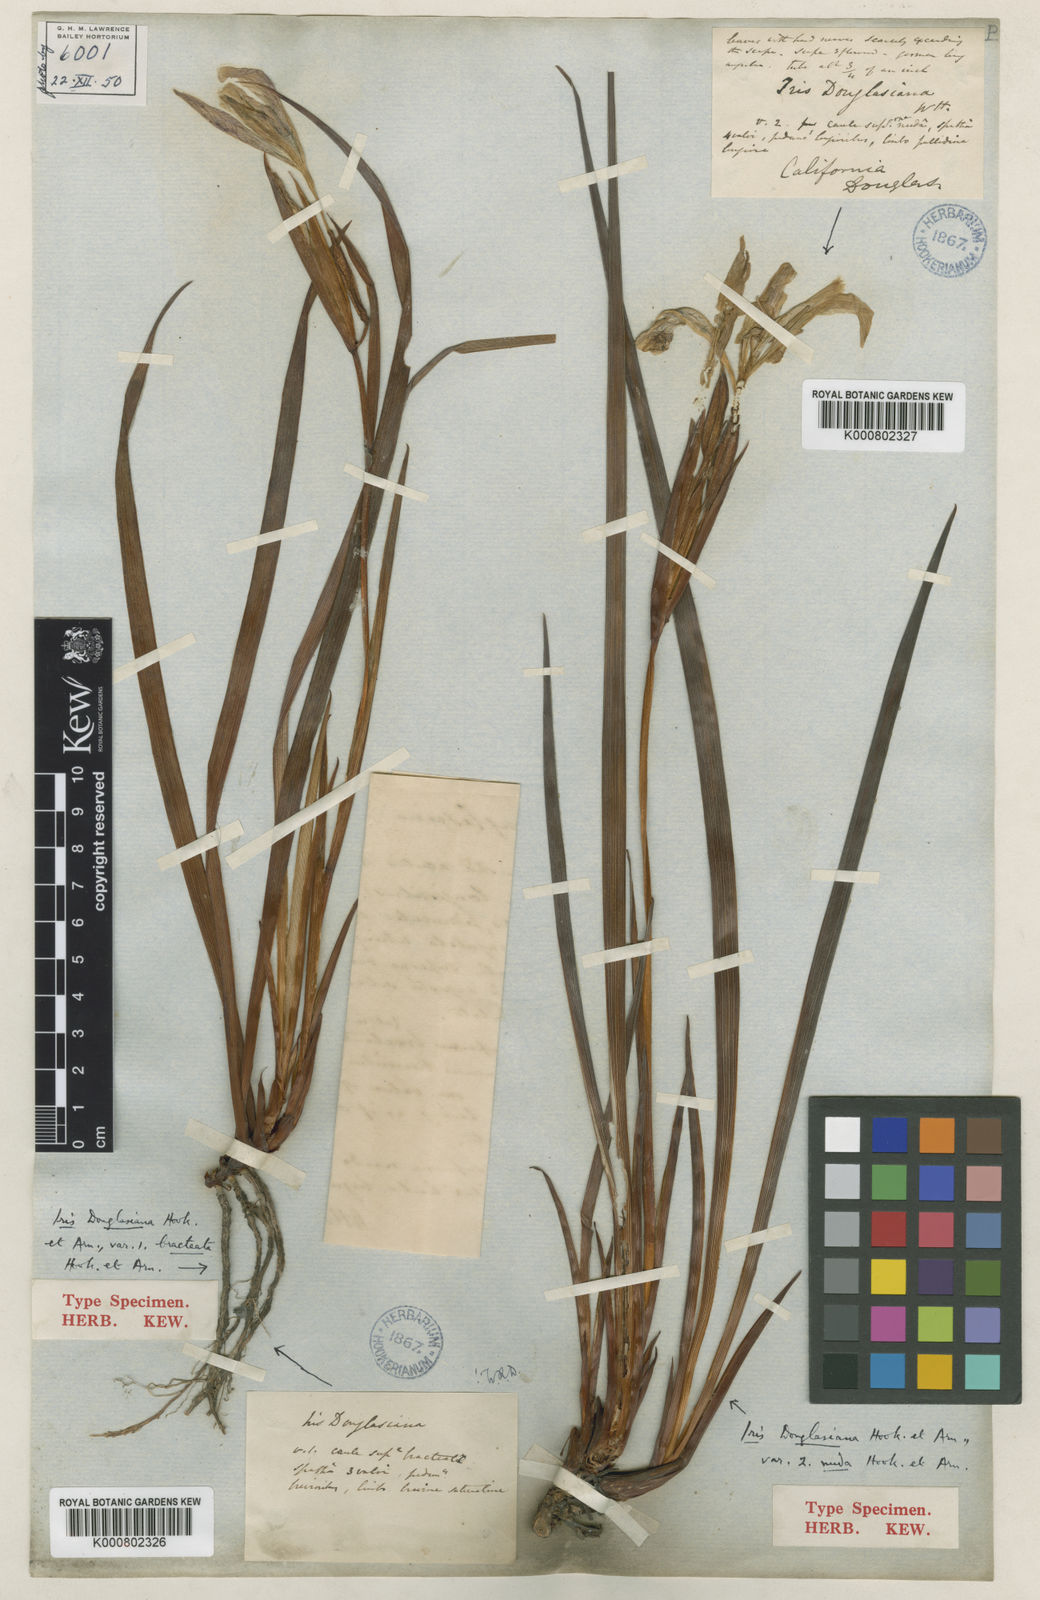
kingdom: Plantae
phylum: Tracheophyta
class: Liliopsida
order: Asparagales
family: Iridaceae
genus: Iris
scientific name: Iris douglasiana
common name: Marin iris
